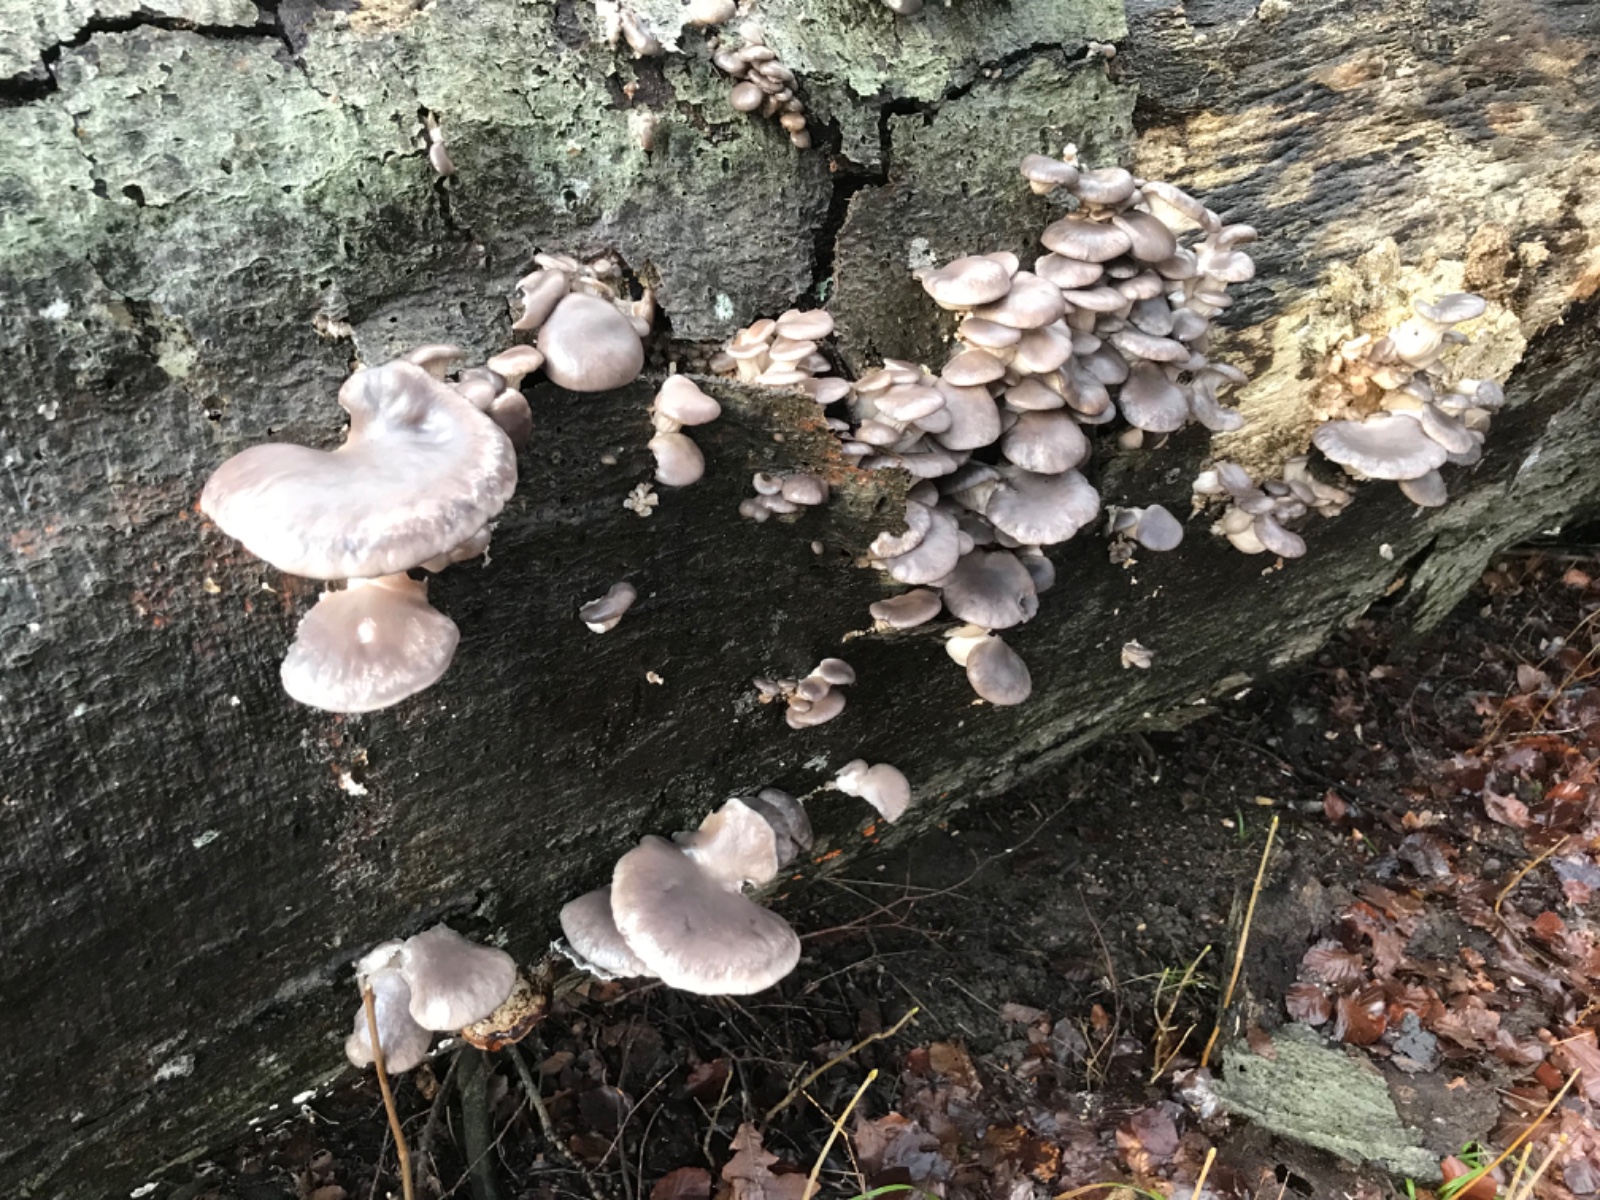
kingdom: Fungi
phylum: Basidiomycota
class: Agaricomycetes
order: Agaricales
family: Pleurotaceae
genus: Pleurotus
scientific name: Pleurotus ostreatus
